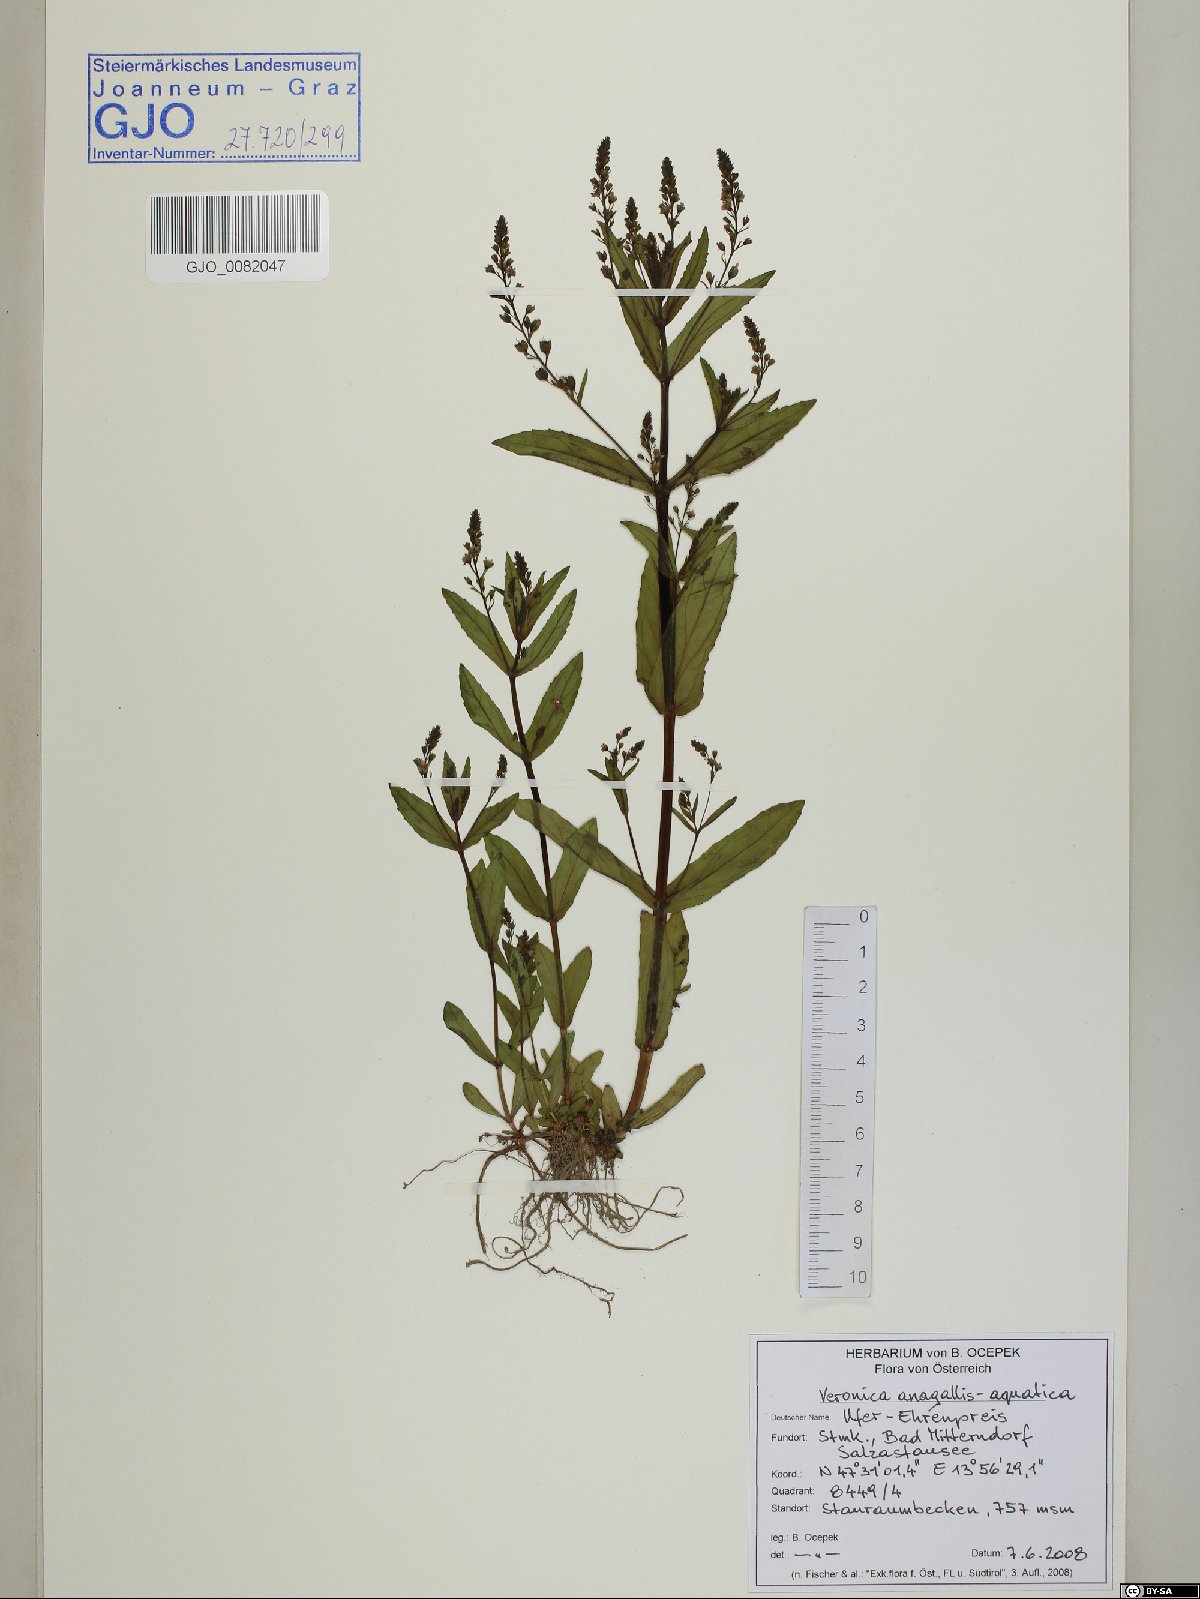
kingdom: Plantae
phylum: Tracheophyta
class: Magnoliopsida
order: Lamiales
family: Plantaginaceae
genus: Veronica
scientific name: Veronica anagallis-aquatica
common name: Water speedwell
